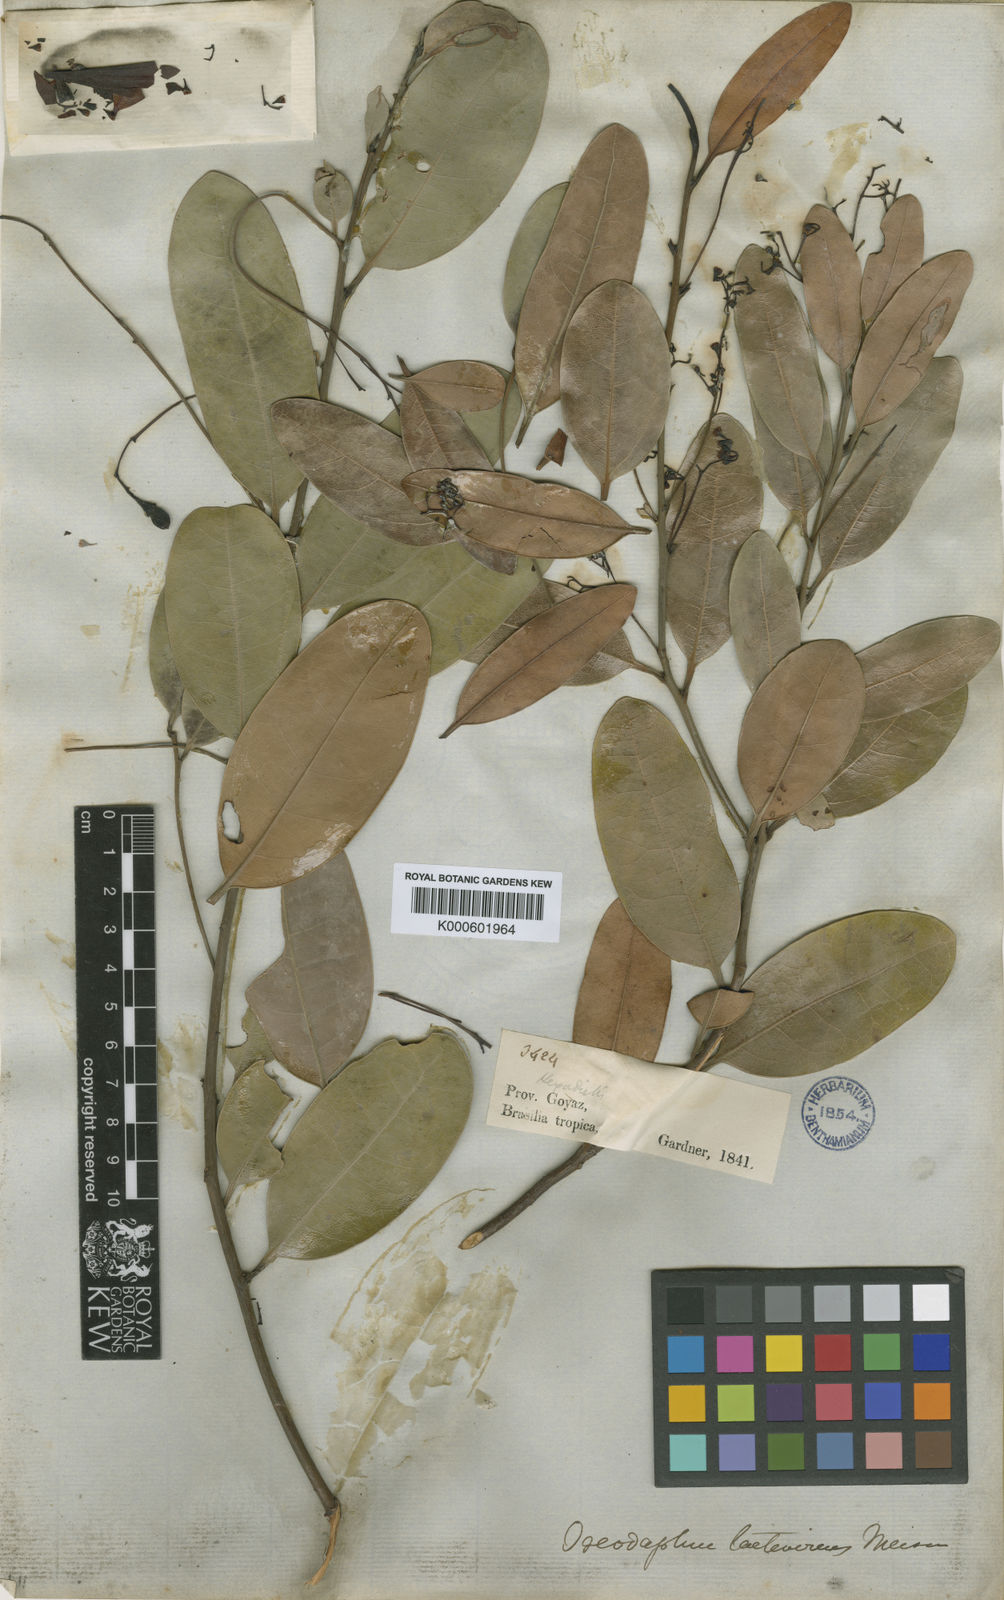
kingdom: Plantae
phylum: Tracheophyta
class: Magnoliopsida
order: Laurales
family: Lauraceae
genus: Aiouea
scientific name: Aiouea trinervis
